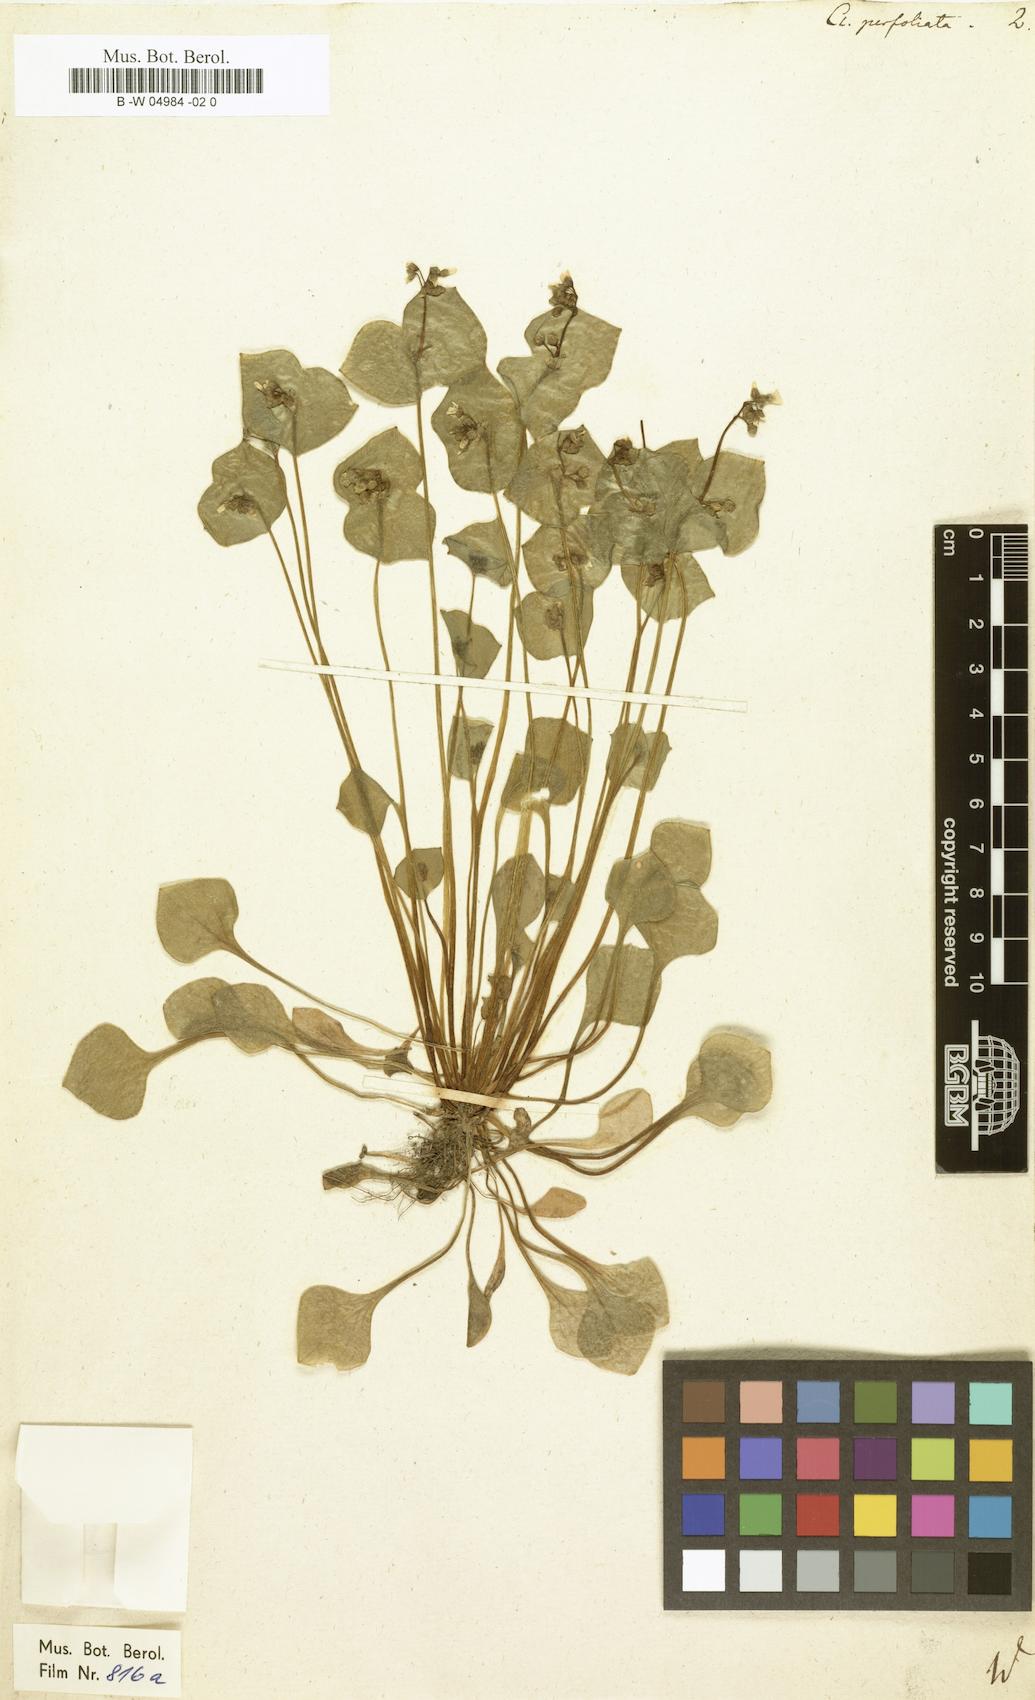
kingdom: Plantae
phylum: Tracheophyta
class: Magnoliopsida
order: Caryophyllales
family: Montiaceae
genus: Claytonia
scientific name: Claytonia perfoliata
